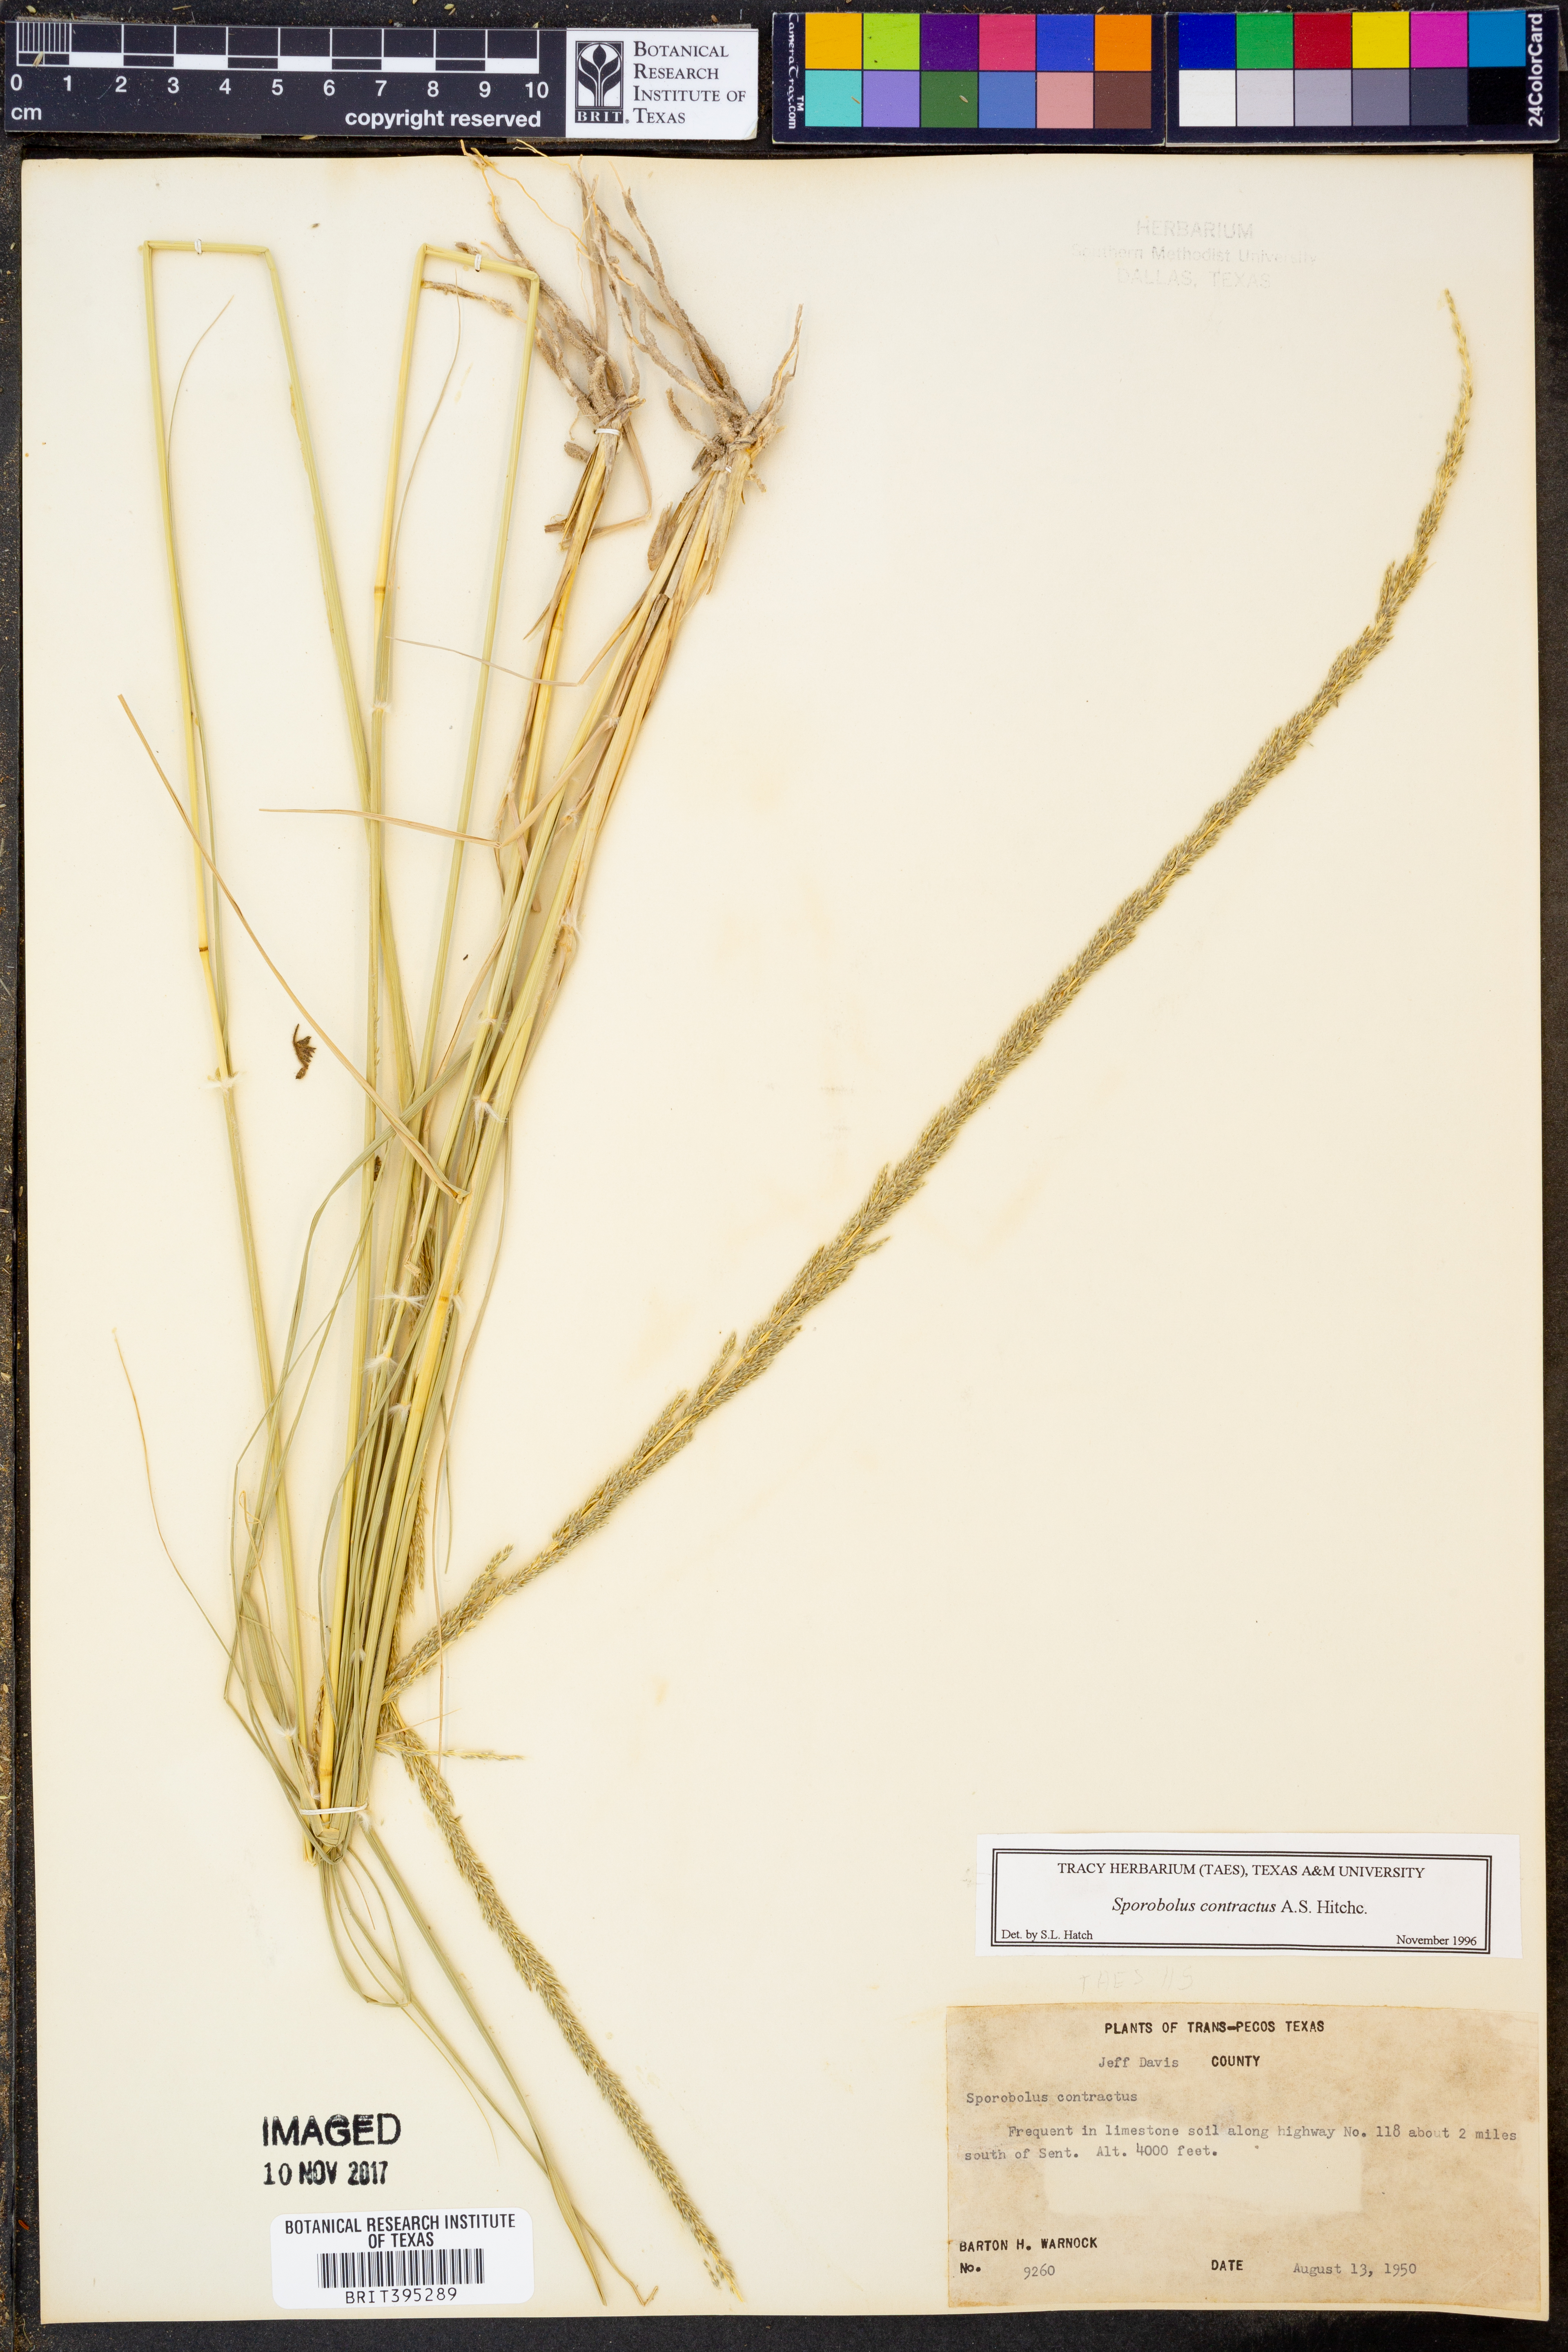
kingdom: Plantae
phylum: Tracheophyta
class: Liliopsida
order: Poales
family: Poaceae
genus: Sporobolus
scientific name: Sporobolus contractus
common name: Spike dropseed
